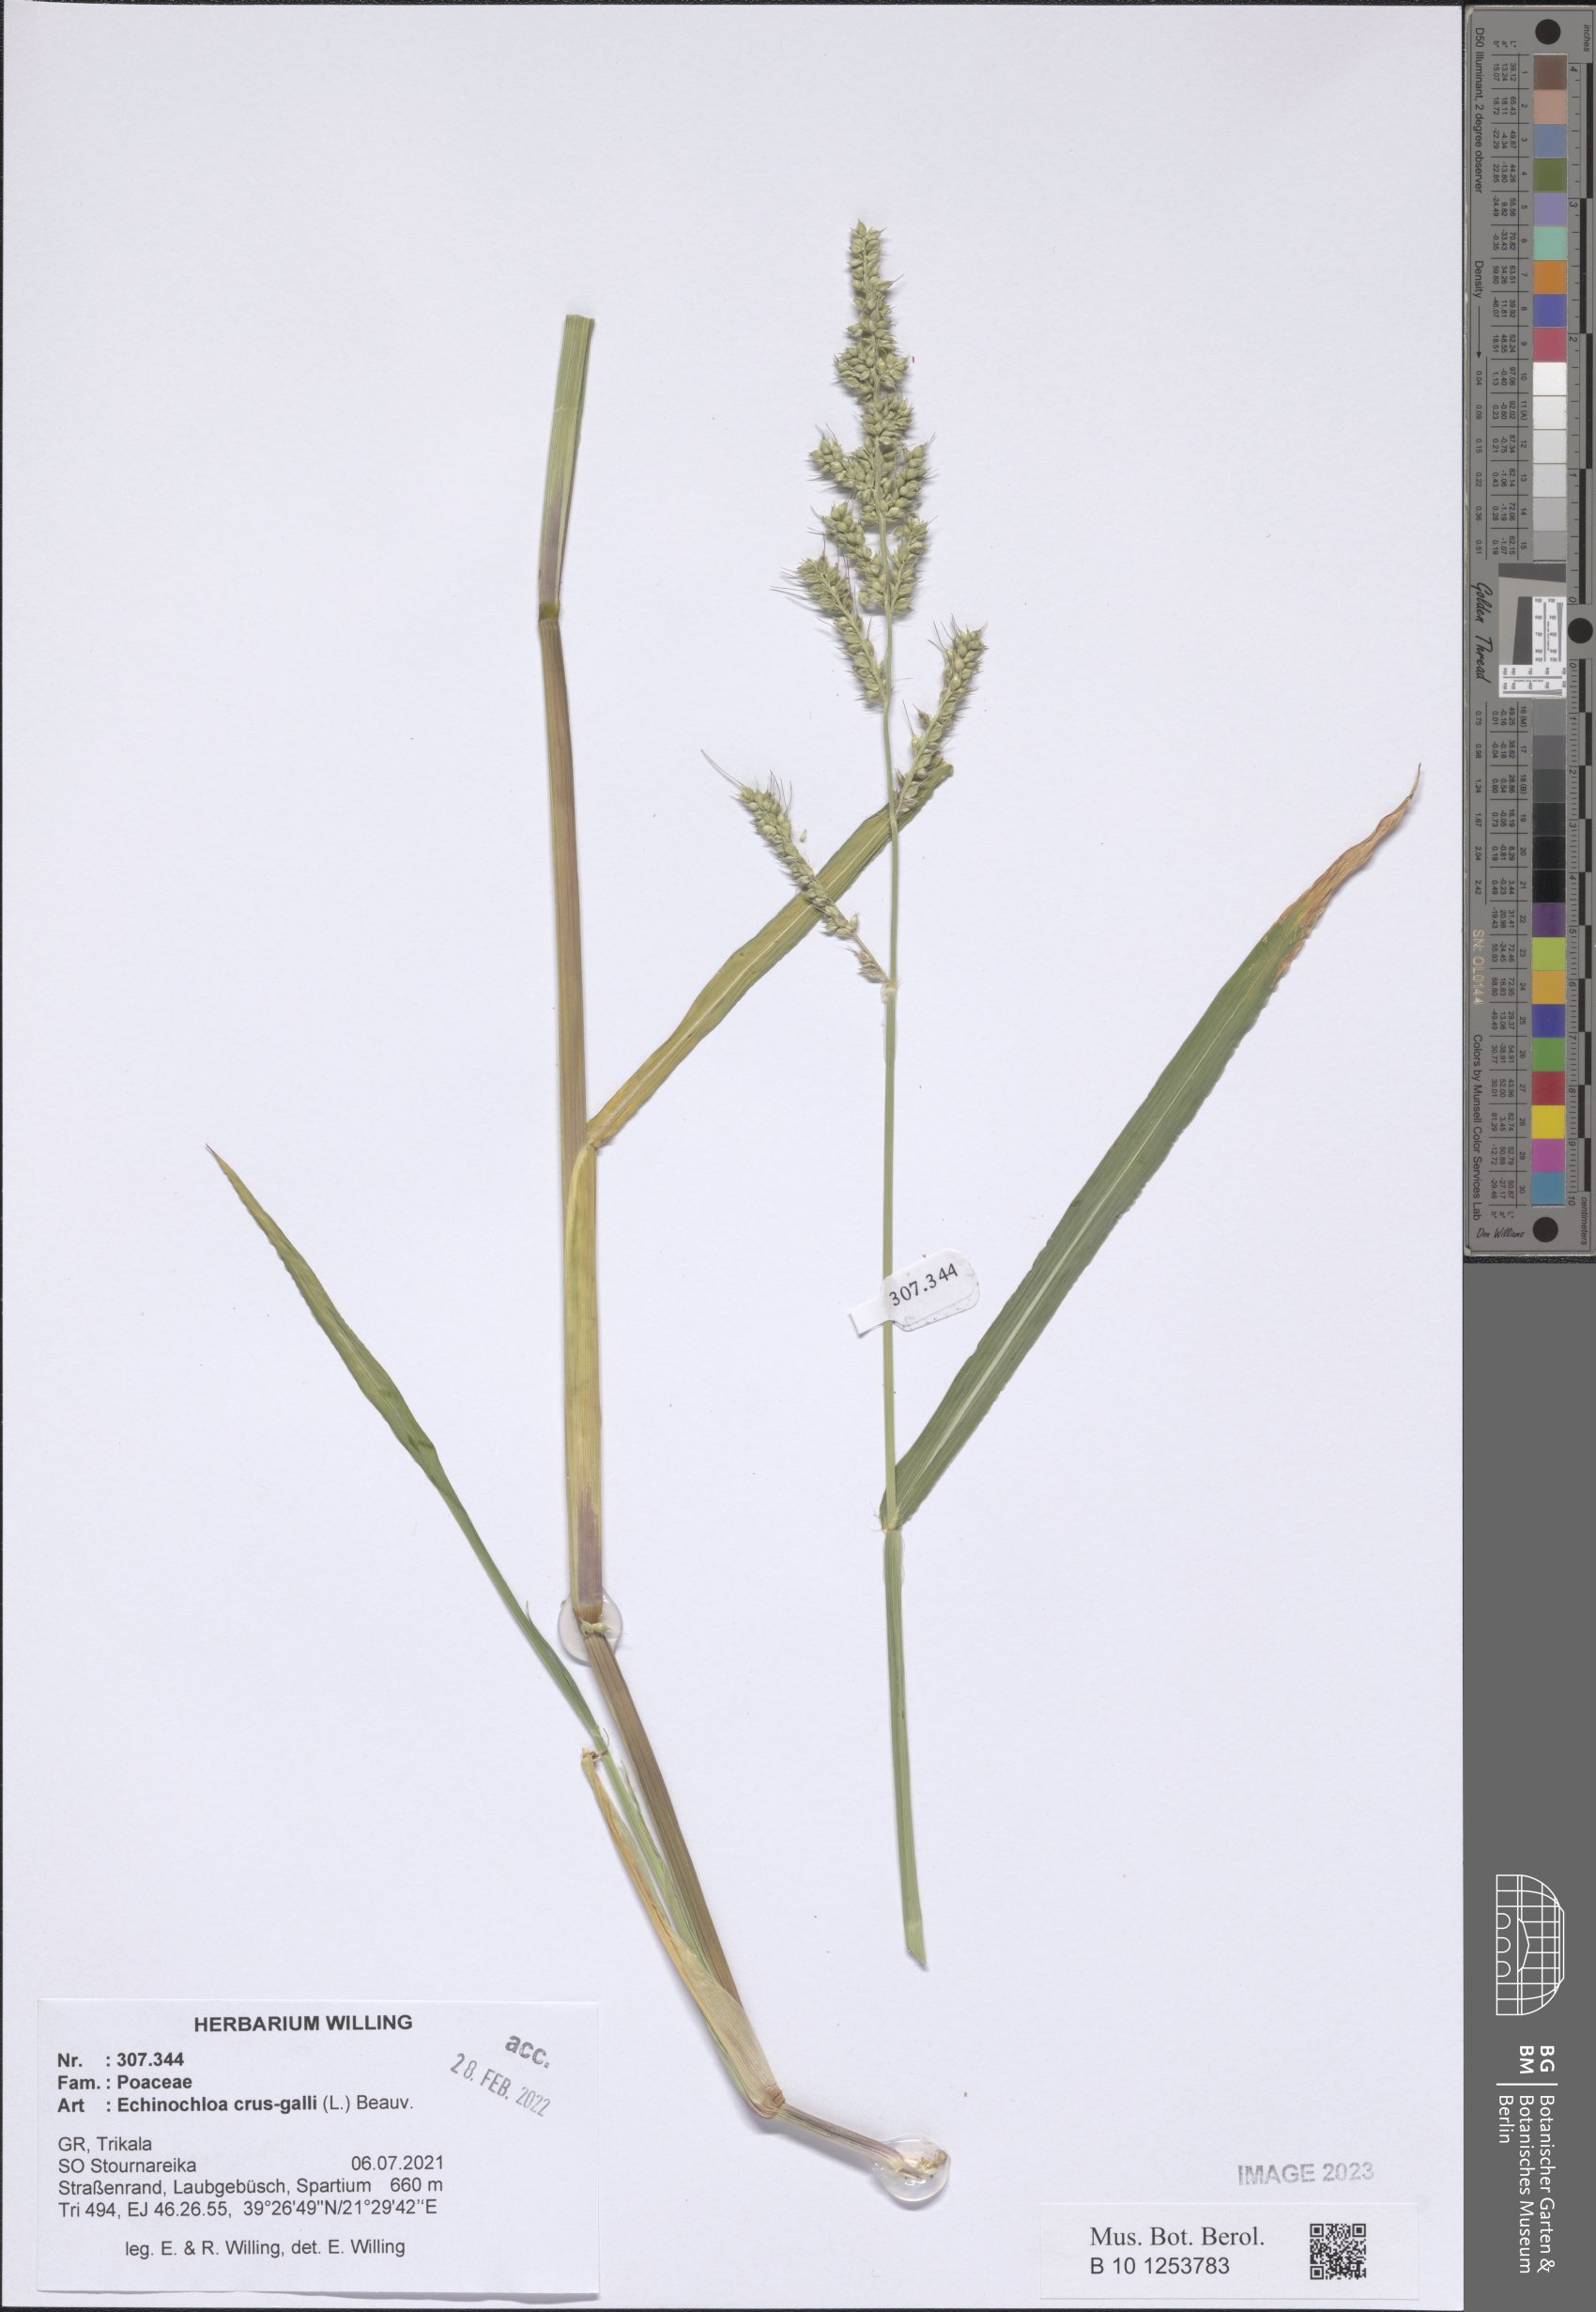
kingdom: Plantae
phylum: Tracheophyta
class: Liliopsida
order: Poales
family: Poaceae
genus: Echinochloa
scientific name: Echinochloa crus-galli
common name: Cockspur
